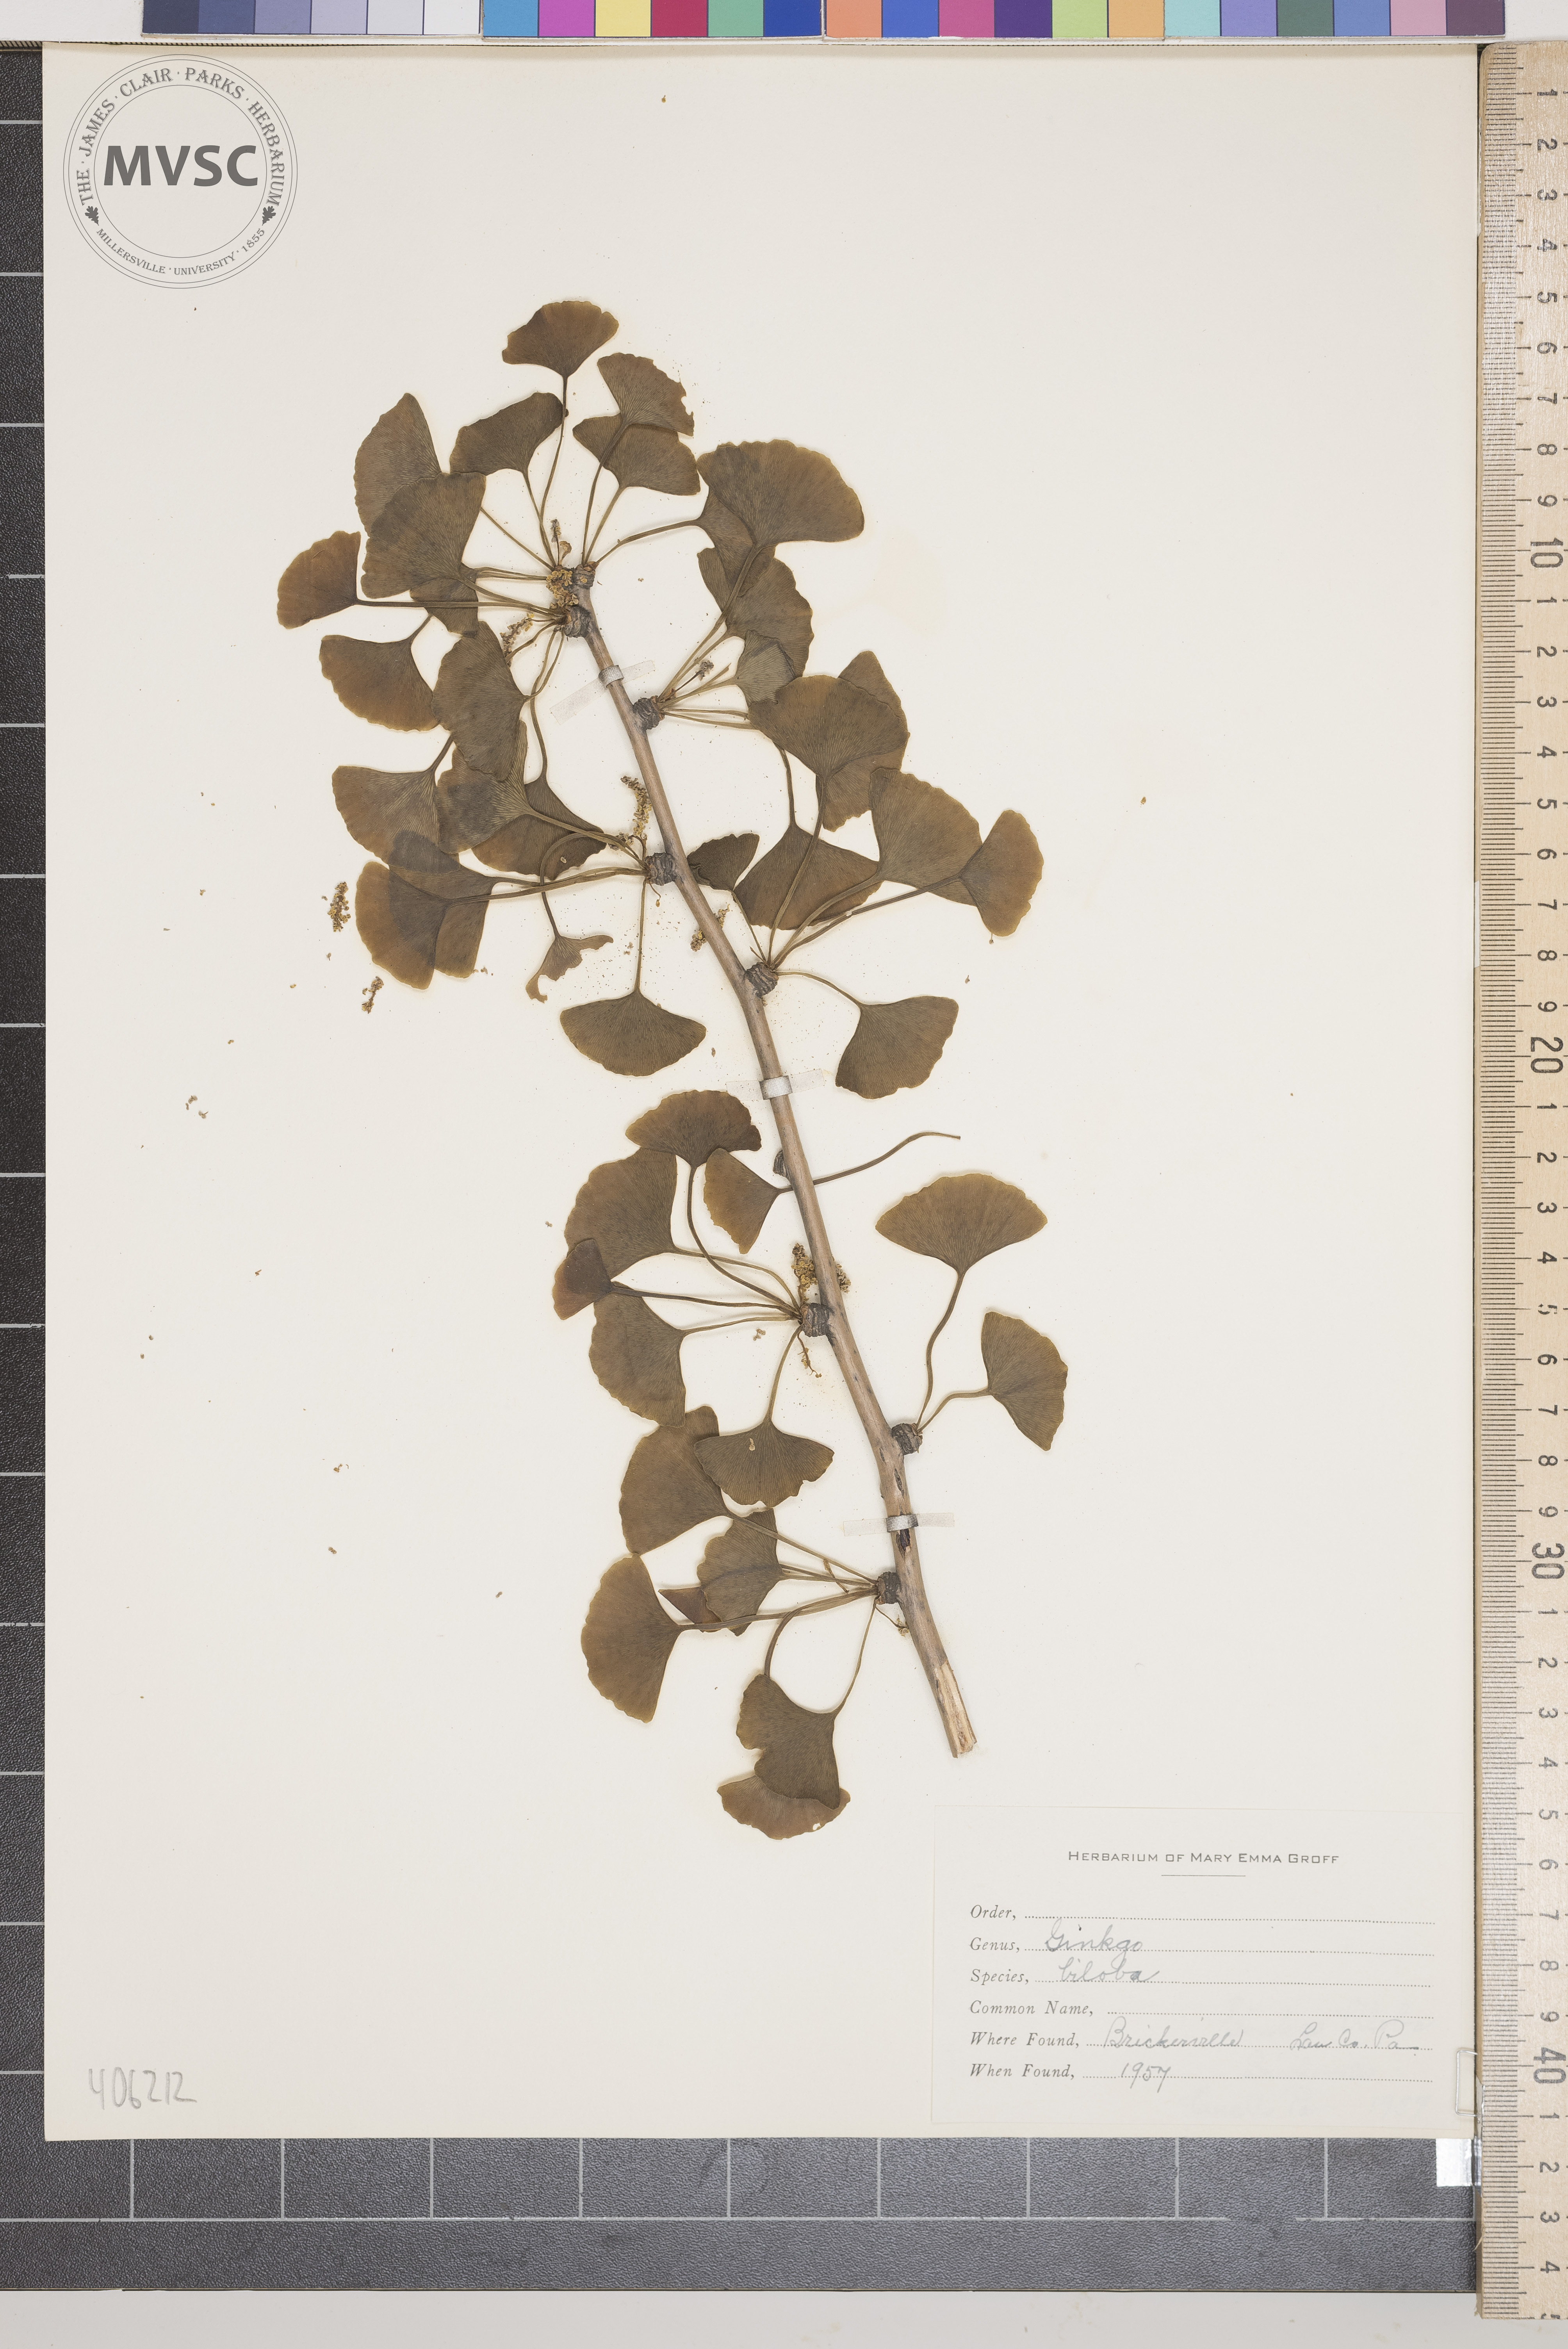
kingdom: Plantae
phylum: Tracheophyta
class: Ginkgoopsida
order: Ginkgoales
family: Ginkgoaceae
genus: Ginkgo
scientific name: Ginkgo biloba
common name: Ginkgo
